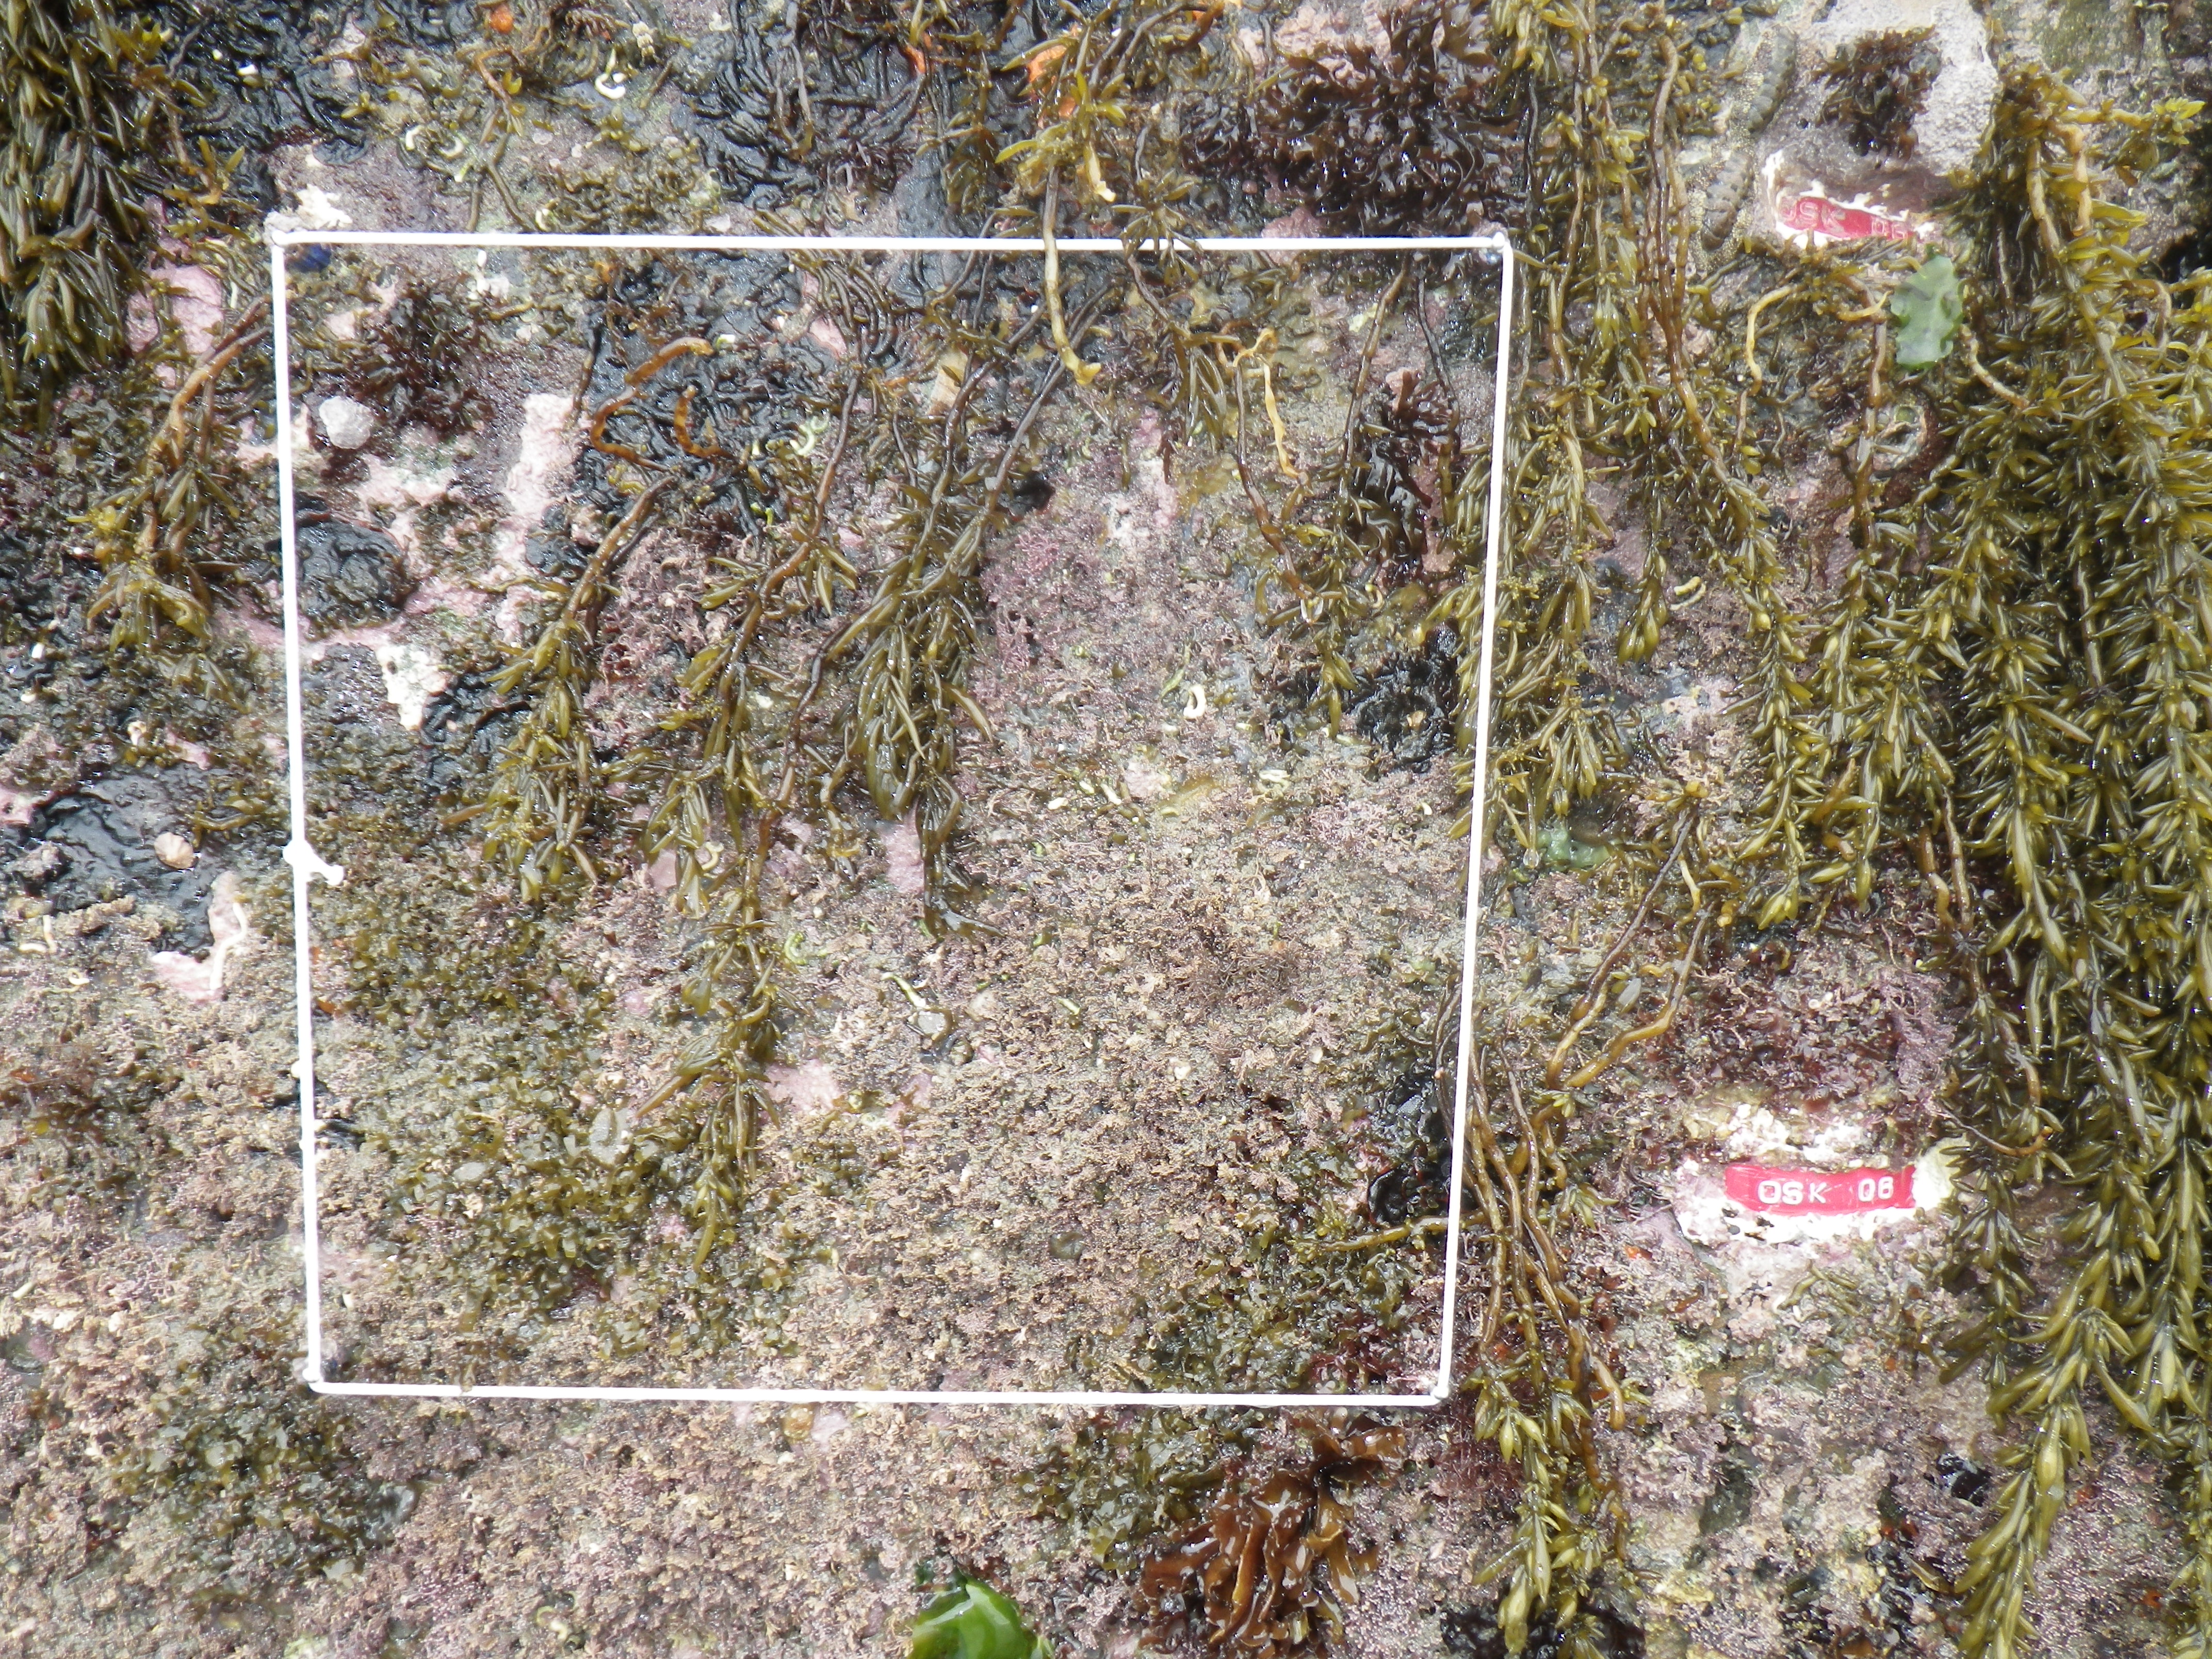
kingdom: Chromista
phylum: Ochrophyta
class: Phaeophyceae
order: Fucales
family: Sargassaceae
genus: Sargassum
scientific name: Sargassum fusiforme
